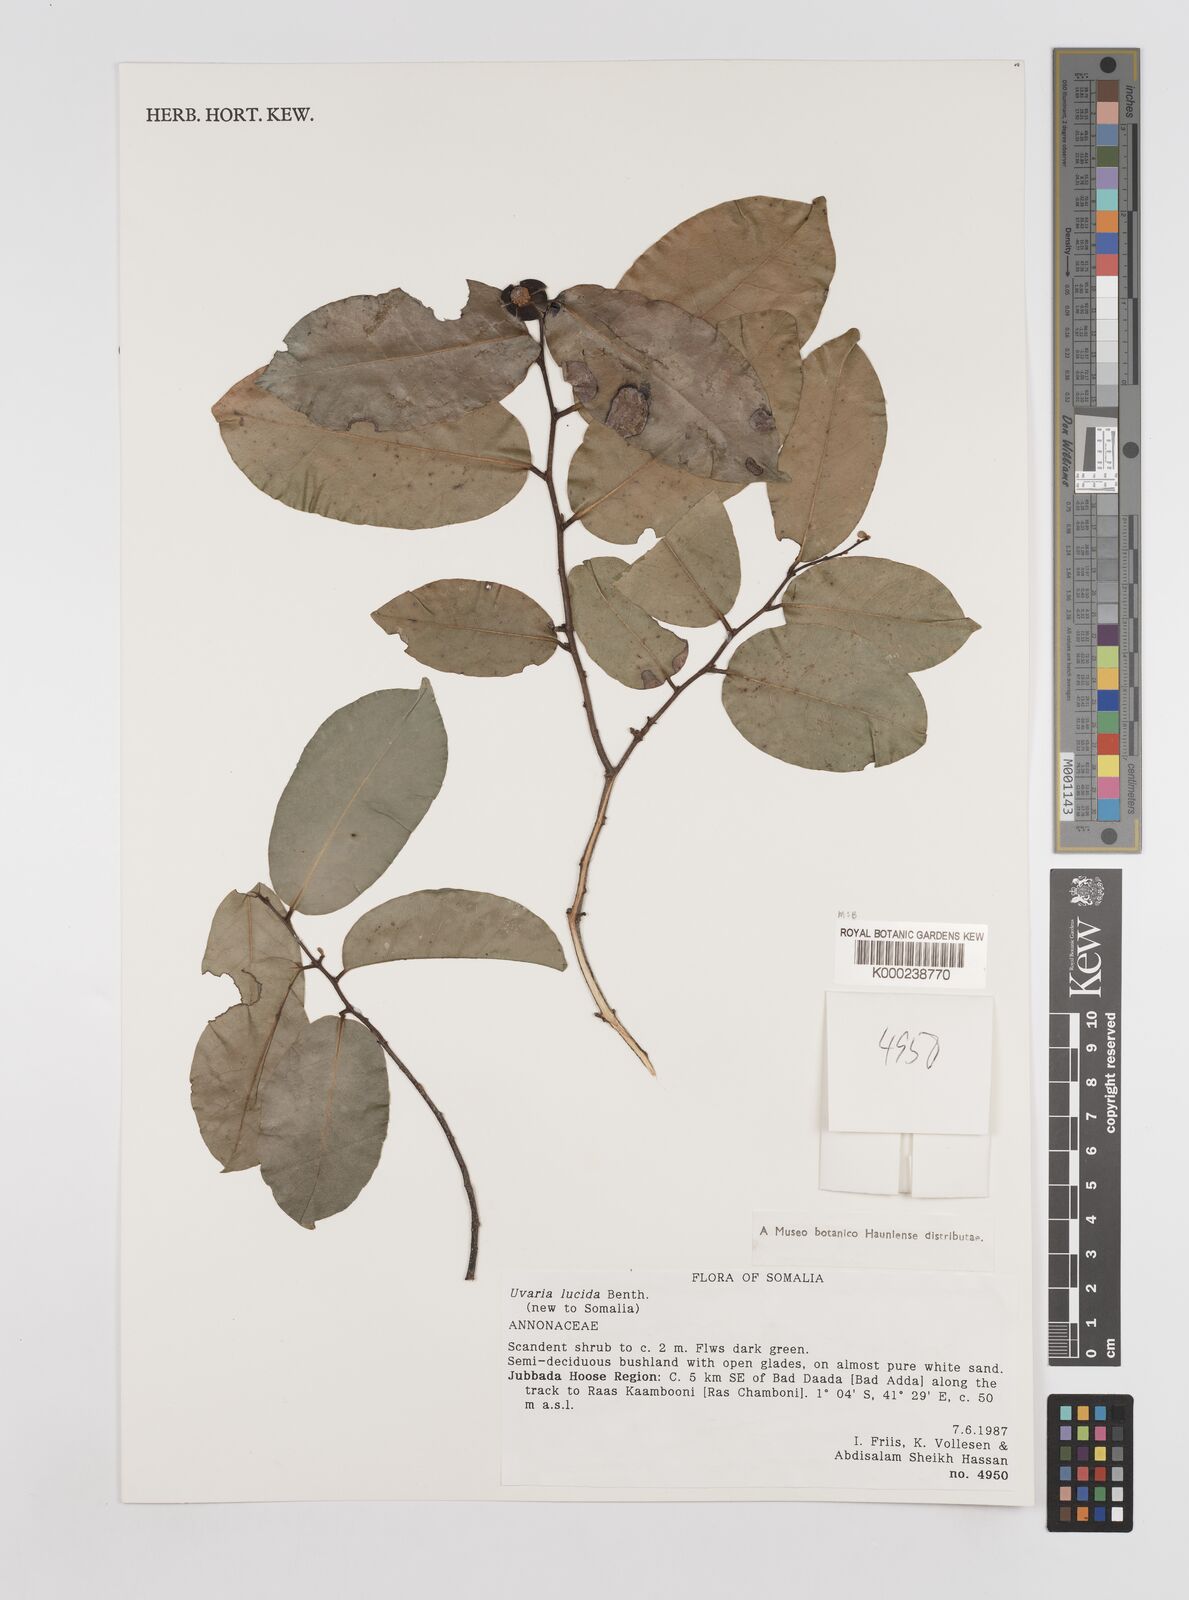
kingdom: Plantae
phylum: Tracheophyta
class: Magnoliopsida
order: Magnoliales
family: Annonaceae
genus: Uvaria
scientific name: Uvaria lucida
